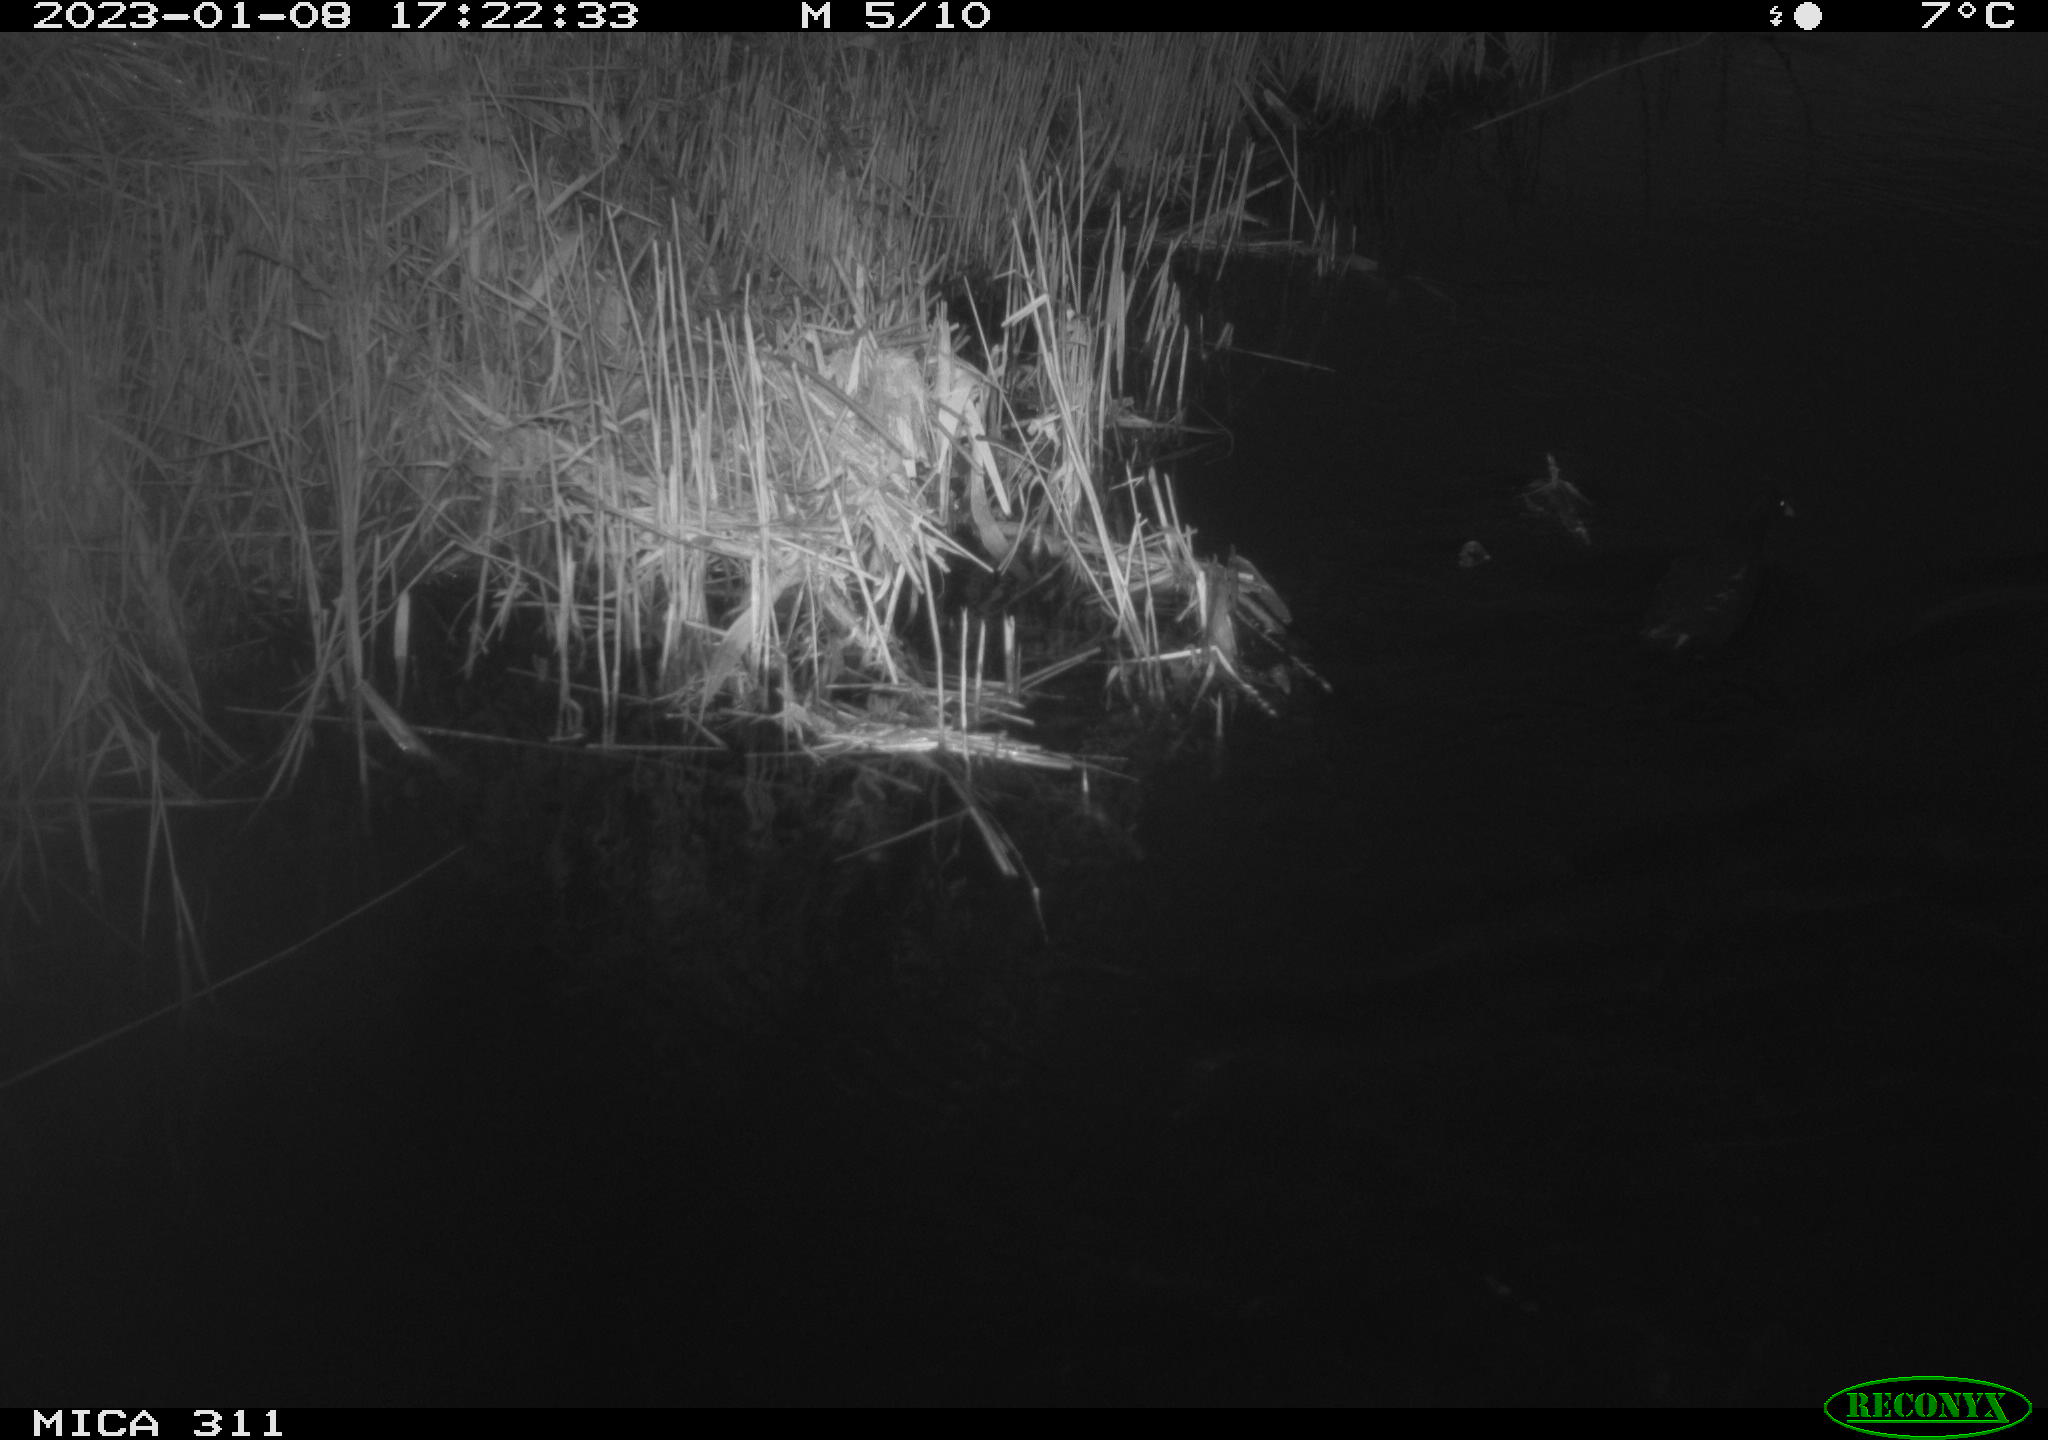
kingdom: Animalia
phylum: Chordata
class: Aves
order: Gruiformes
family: Rallidae
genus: Fulica
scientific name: Fulica atra
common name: Eurasian coot
